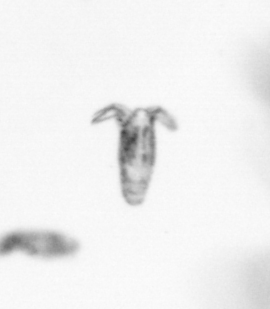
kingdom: Animalia
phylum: Arthropoda
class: Copepoda
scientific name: Copepoda
